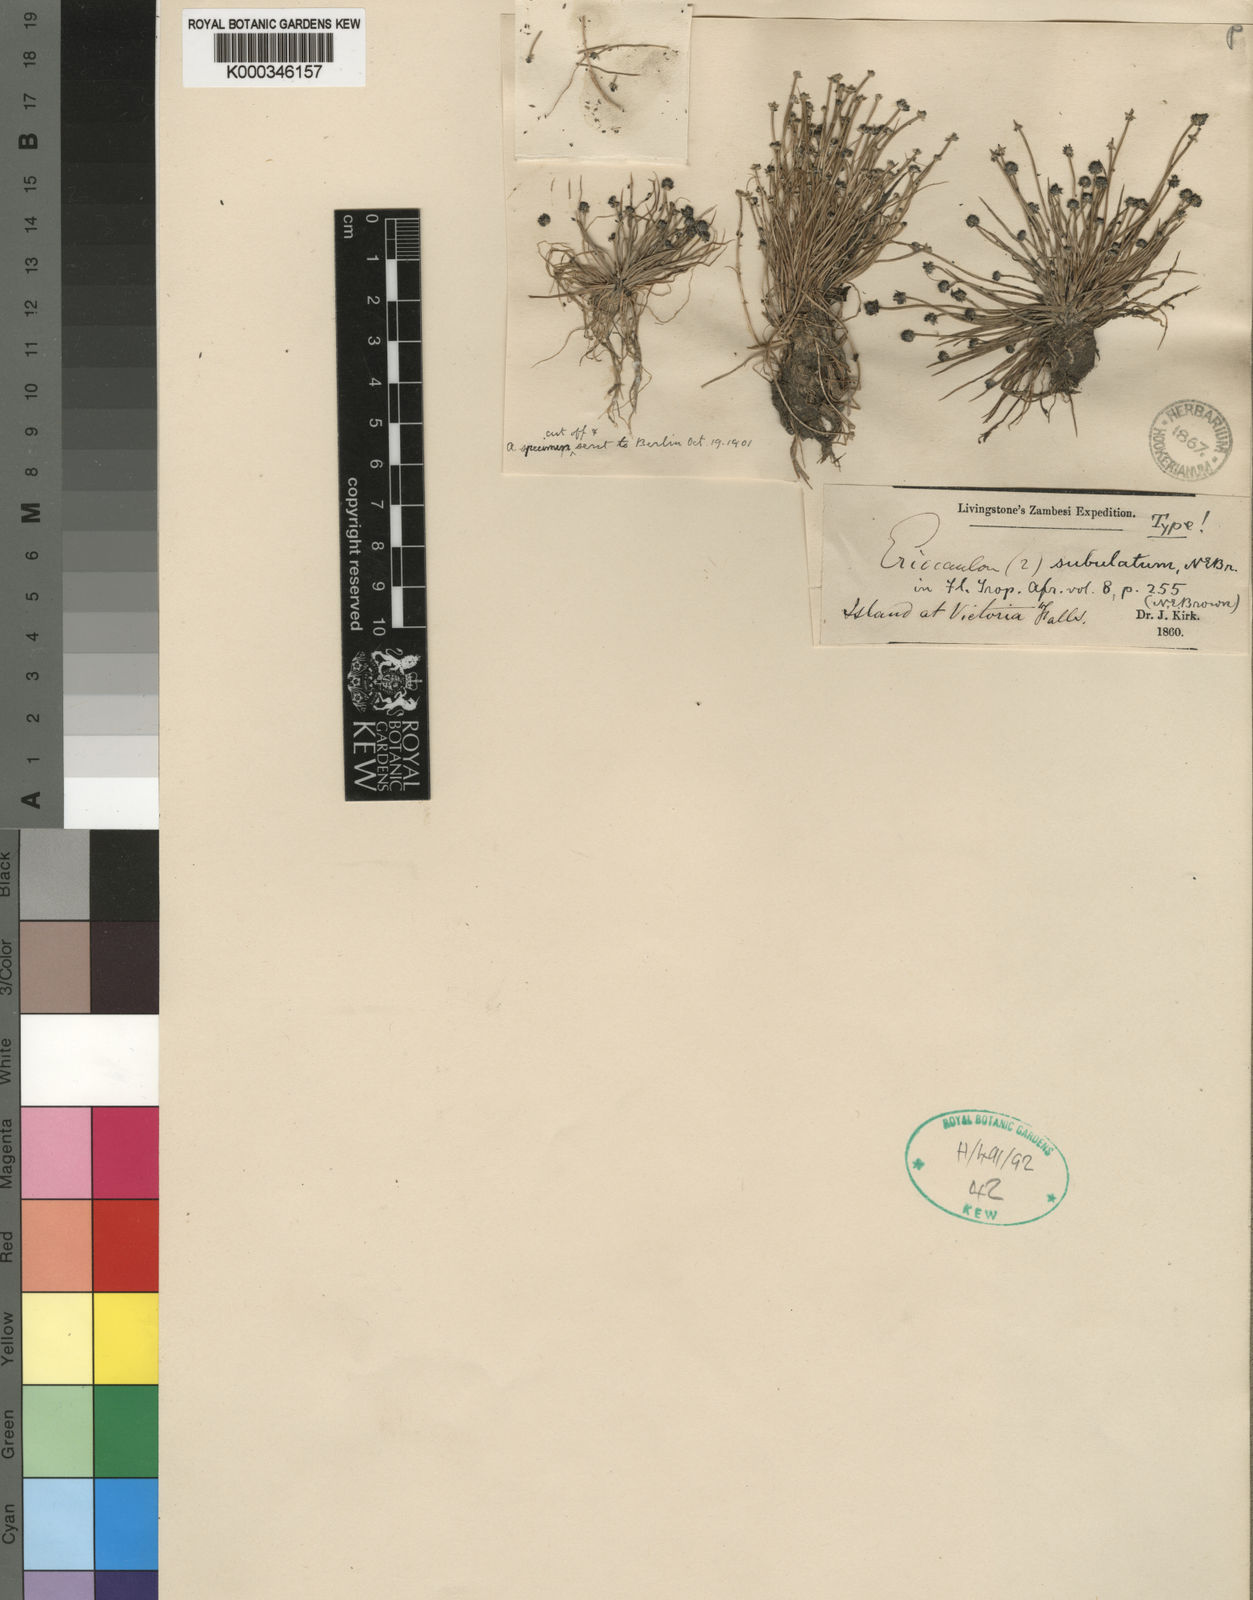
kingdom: Plantae
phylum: Tracheophyta
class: Liliopsida
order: Poales
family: Eriocaulaceae
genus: Eriocaulon
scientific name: Eriocaulon abyssinicum
